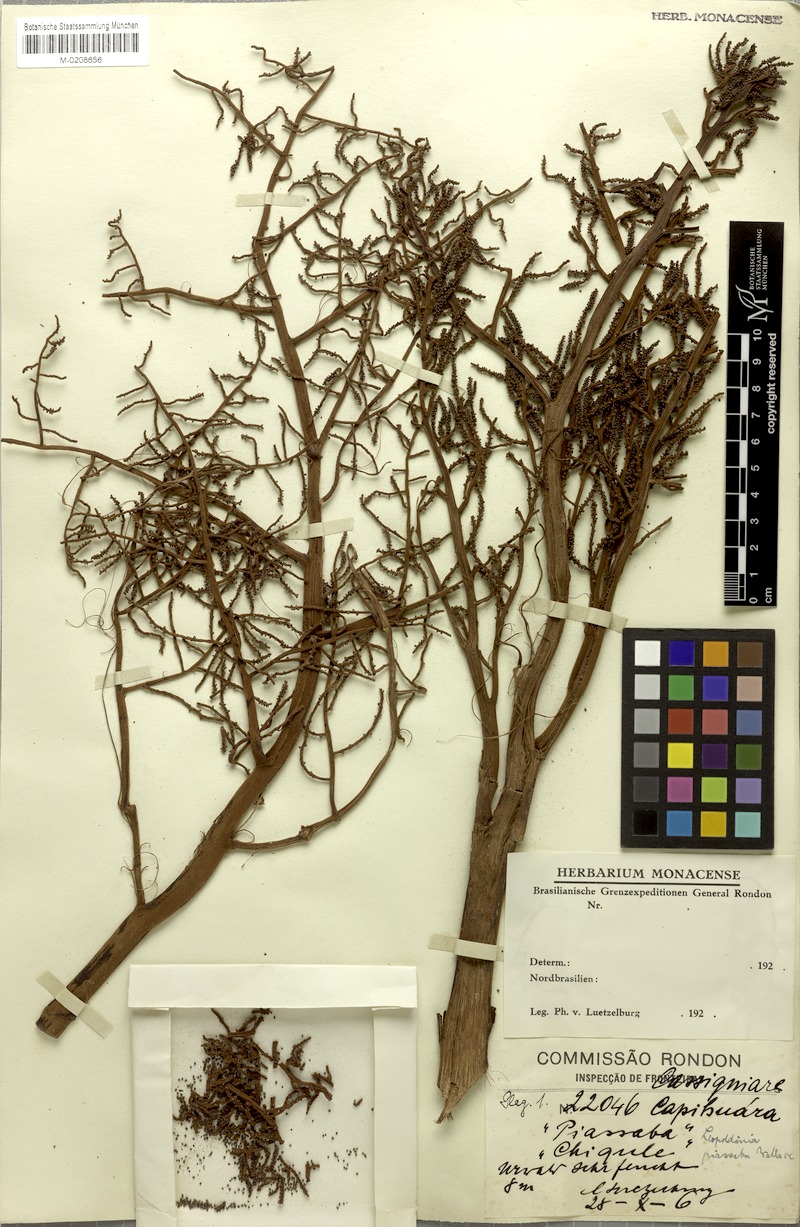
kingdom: Plantae
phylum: Tracheophyta
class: Liliopsida
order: Arecales
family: Arecaceae
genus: Leopoldinia
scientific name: Leopoldinia piassaba
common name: Piassaba
